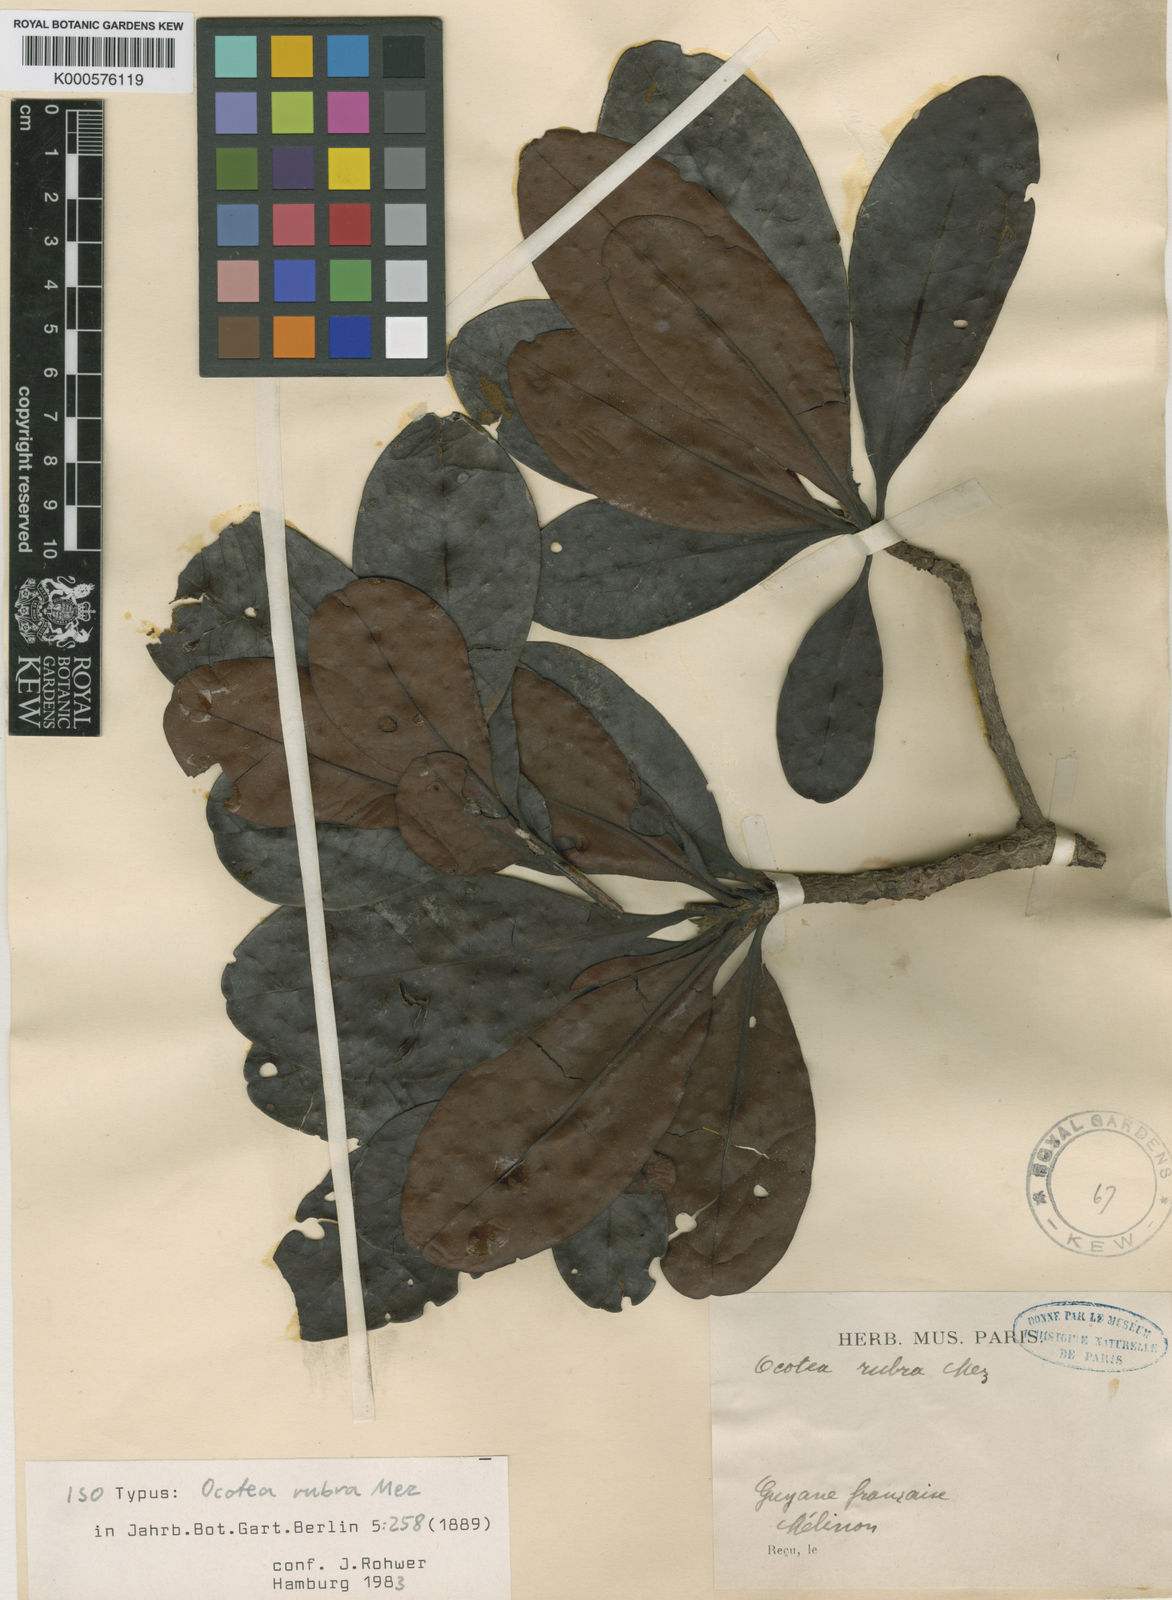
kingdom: Plantae
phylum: Tracheophyta
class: Magnoliopsida
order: Laurales
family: Lauraceae
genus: Sextonia
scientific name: Sextonia rubra
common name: Red louro
